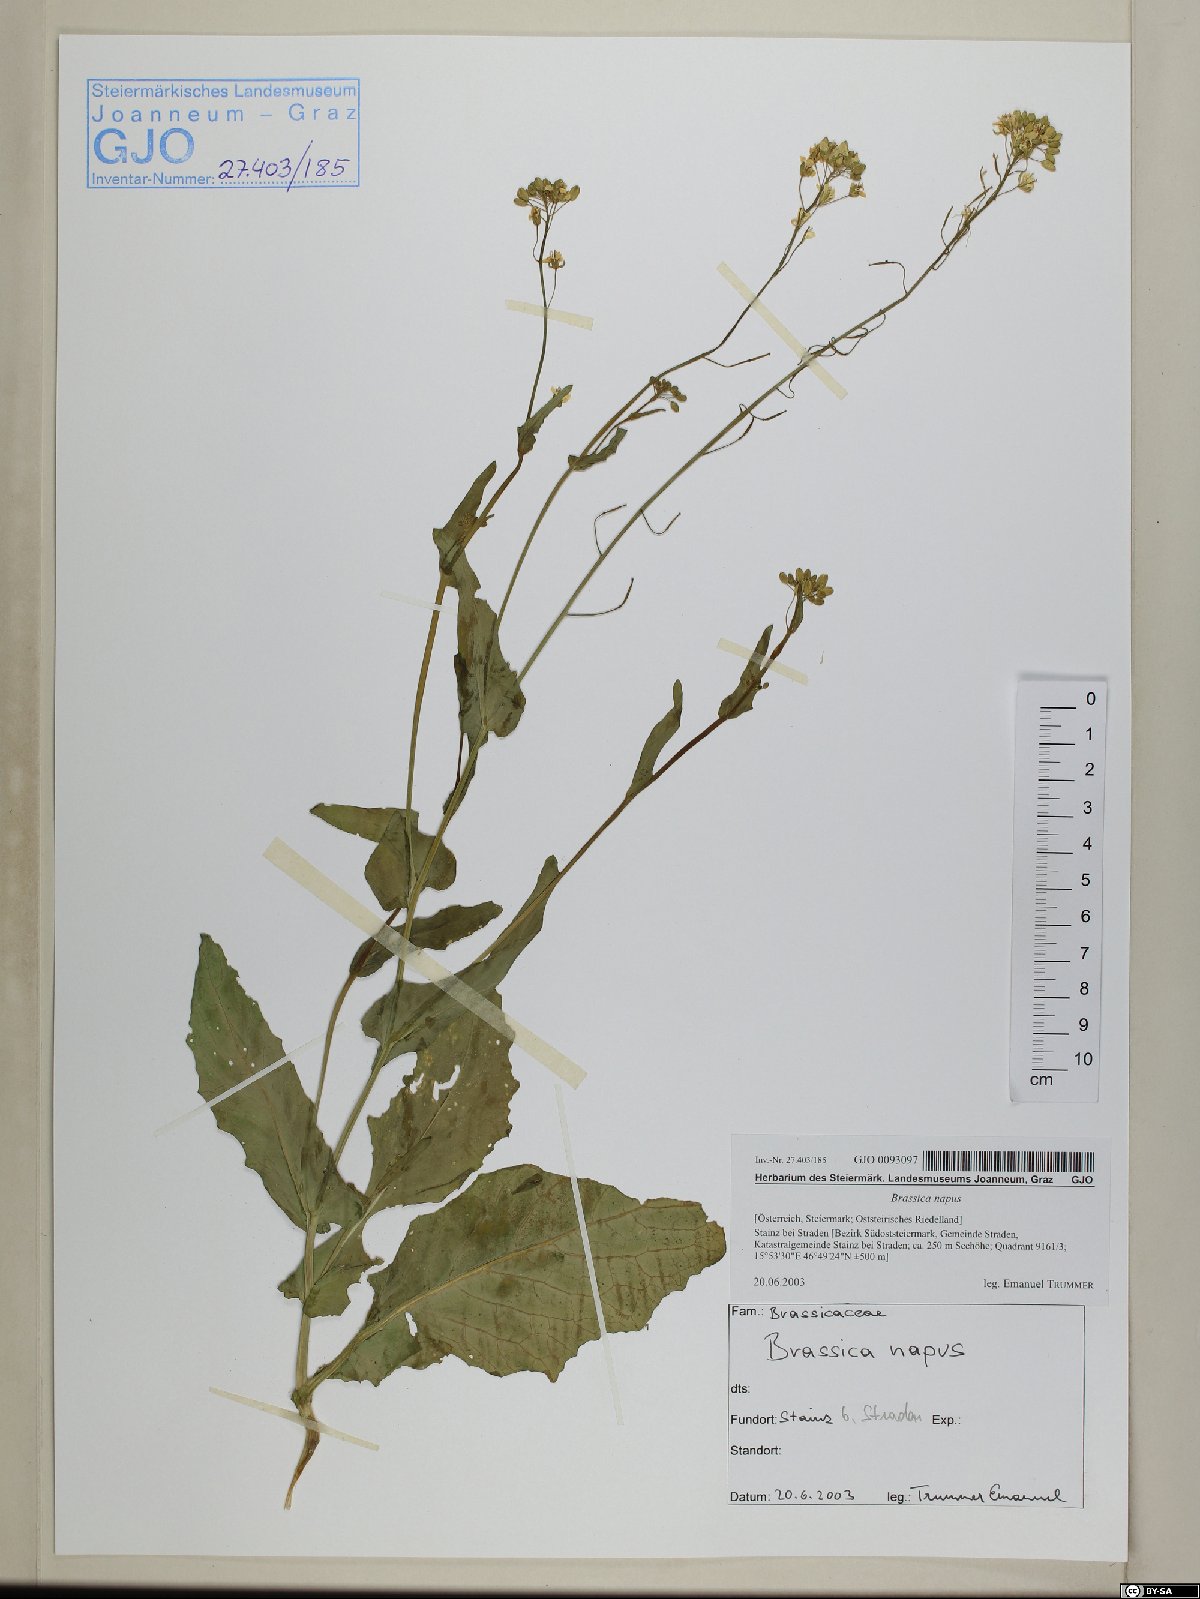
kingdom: Plantae
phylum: Tracheophyta
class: Magnoliopsida
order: Brassicales
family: Brassicaceae
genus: Brassica
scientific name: Brassica napus
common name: Rape
